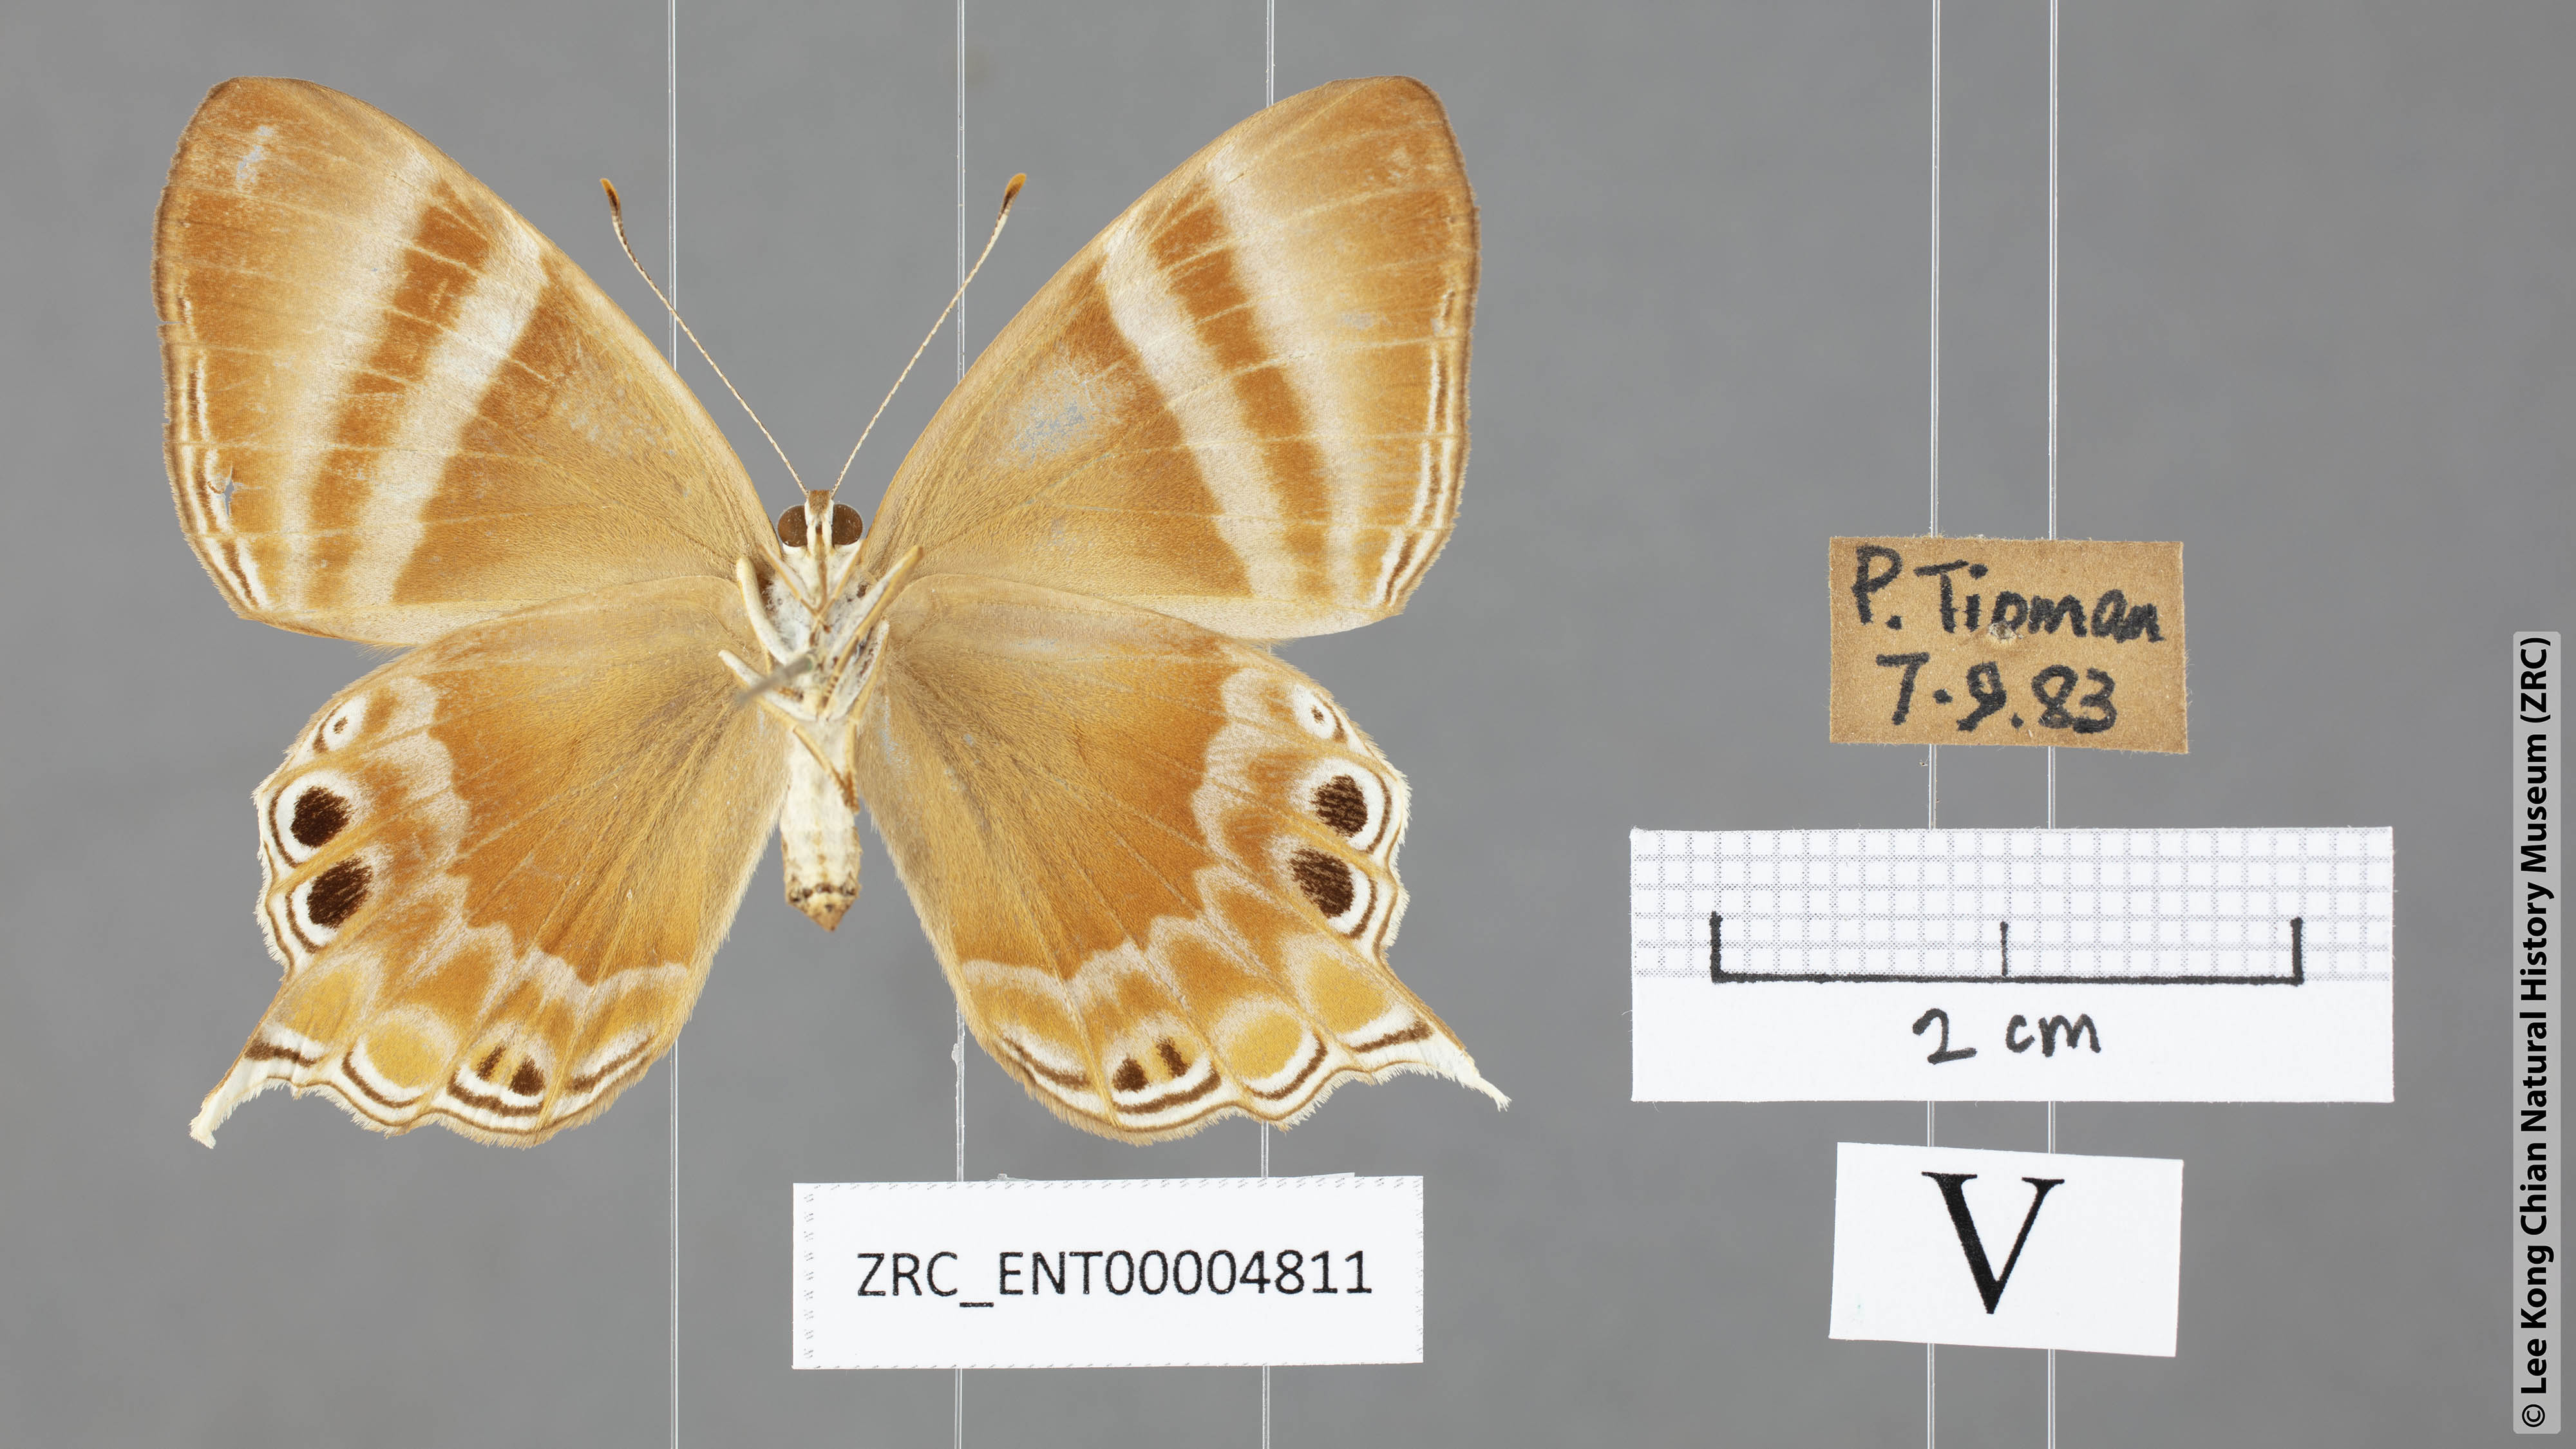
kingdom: Animalia
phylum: Arthropoda
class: Insecta
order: Lepidoptera
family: Riodinidae
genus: Archigenes
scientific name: Archigenes savitri
